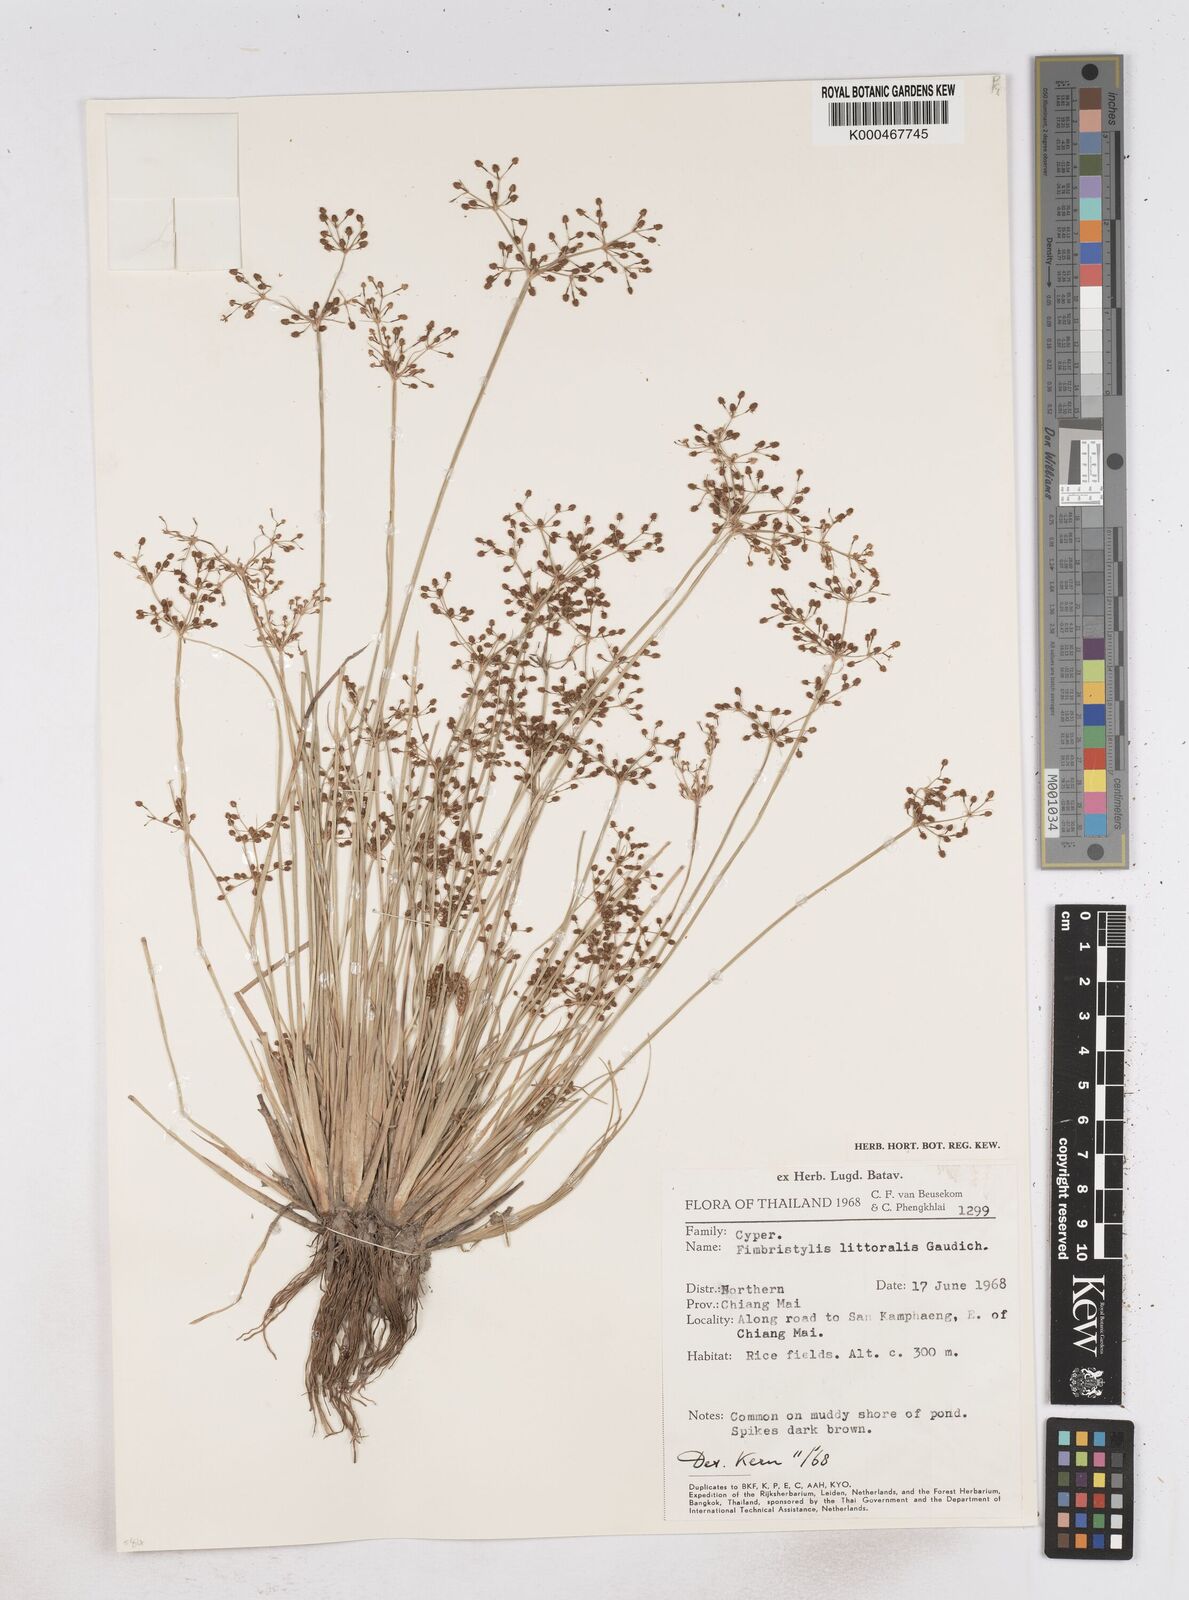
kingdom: Plantae
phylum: Tracheophyta
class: Liliopsida
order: Poales
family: Cyperaceae
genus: Fimbristylis
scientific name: Fimbristylis quinquangularis
